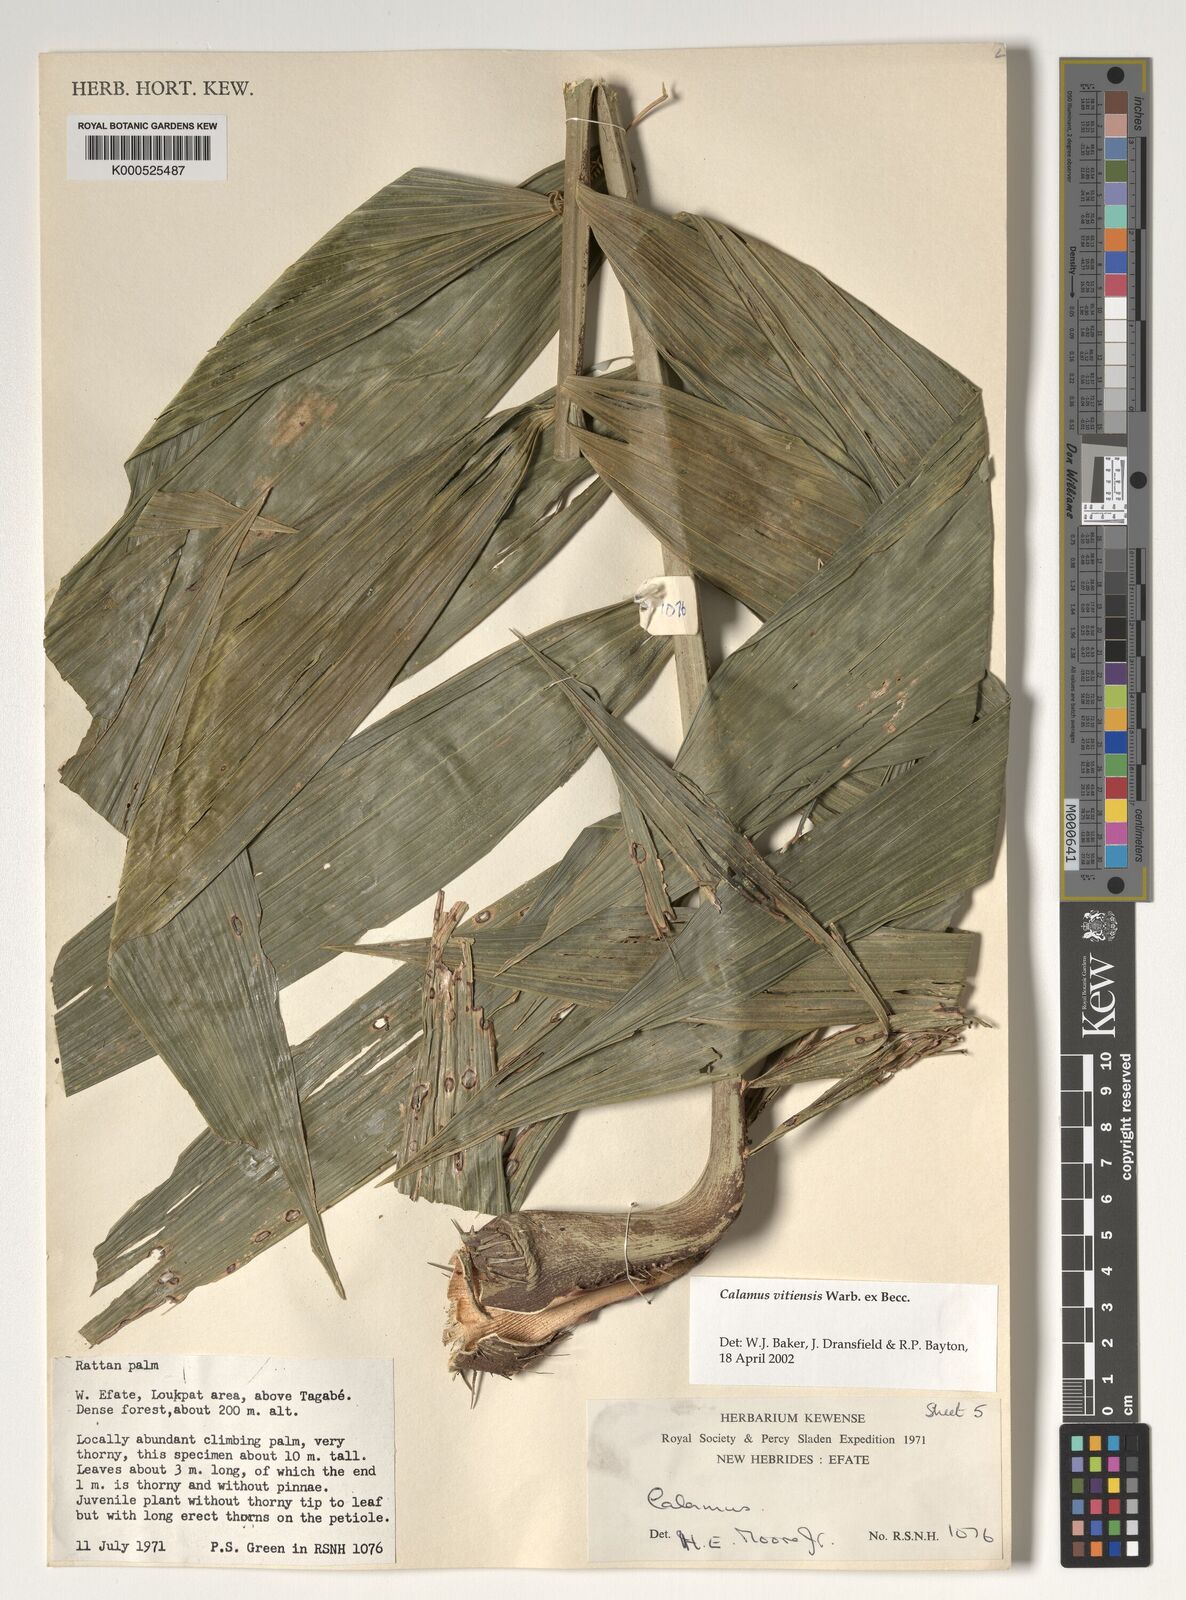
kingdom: Plantae
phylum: Tracheophyta
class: Liliopsida
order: Arecales
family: Arecaceae
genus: Calamus
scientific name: Calamus vitiensis
